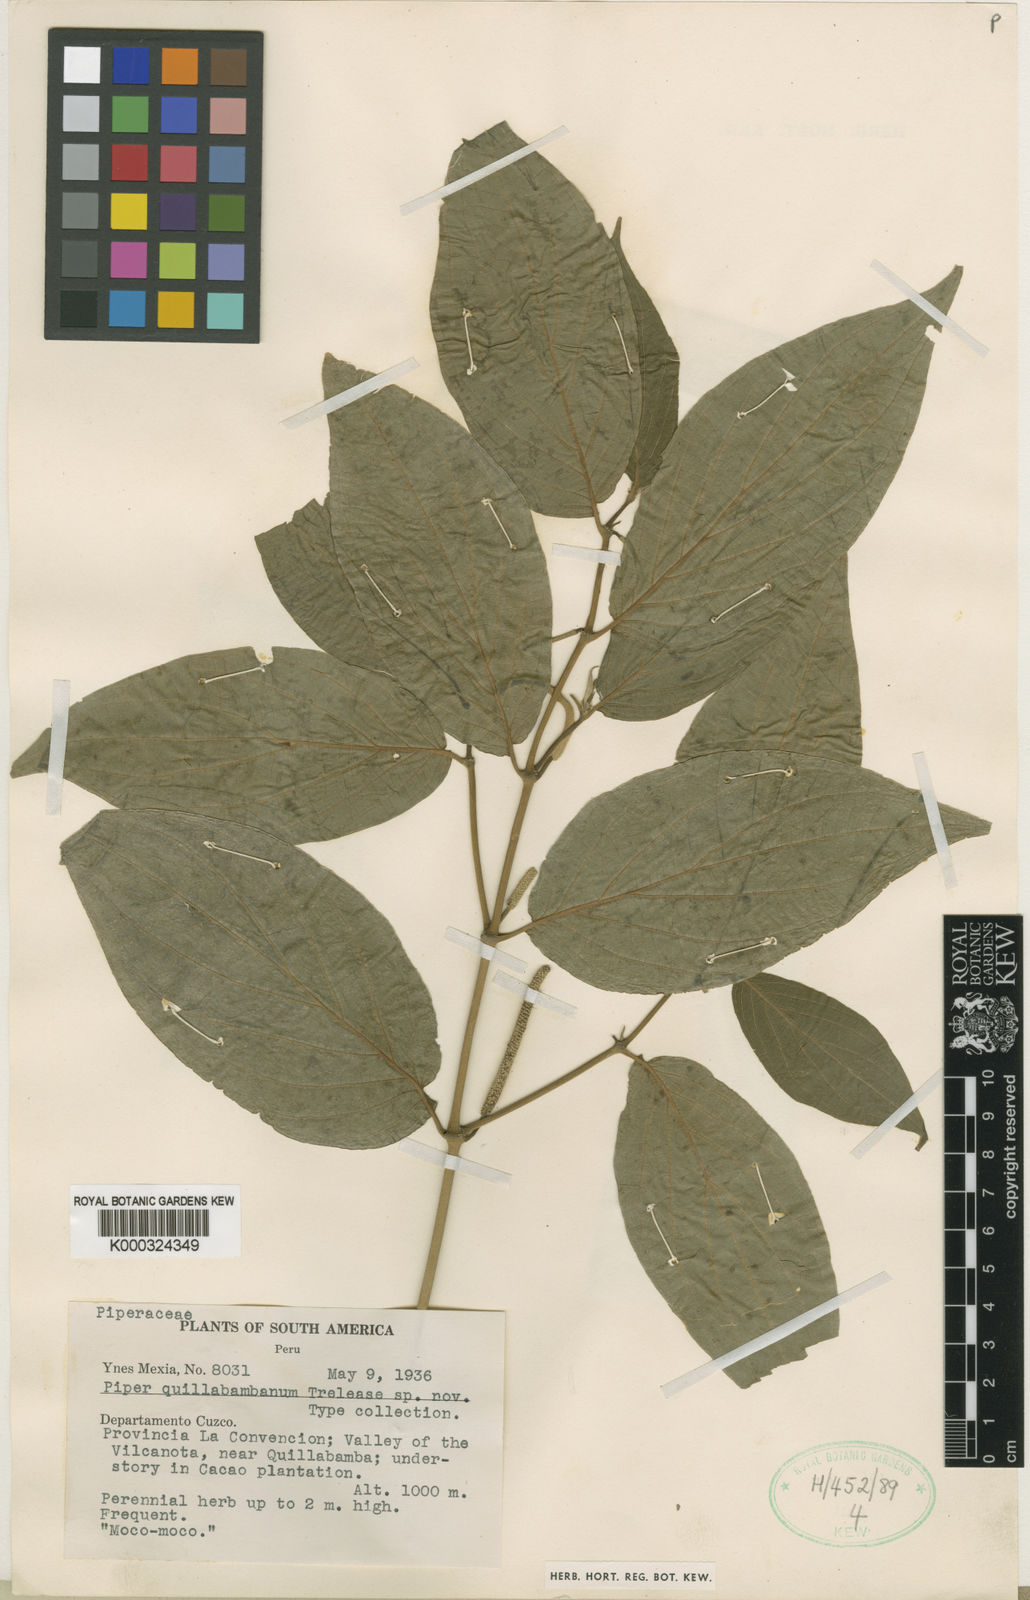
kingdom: Plantae
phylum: Tracheophyta
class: Magnoliopsida
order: Piperales
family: Piperaceae
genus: Piper
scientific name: Piper vanderveldeanum
